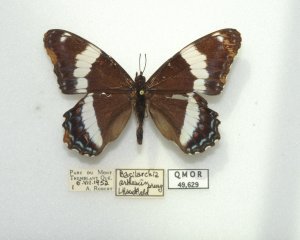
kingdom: Animalia
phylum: Arthropoda
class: Insecta
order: Lepidoptera
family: Nymphalidae
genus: Limenitis
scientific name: Limenitis arthemis
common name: Red-spotted Admiral
